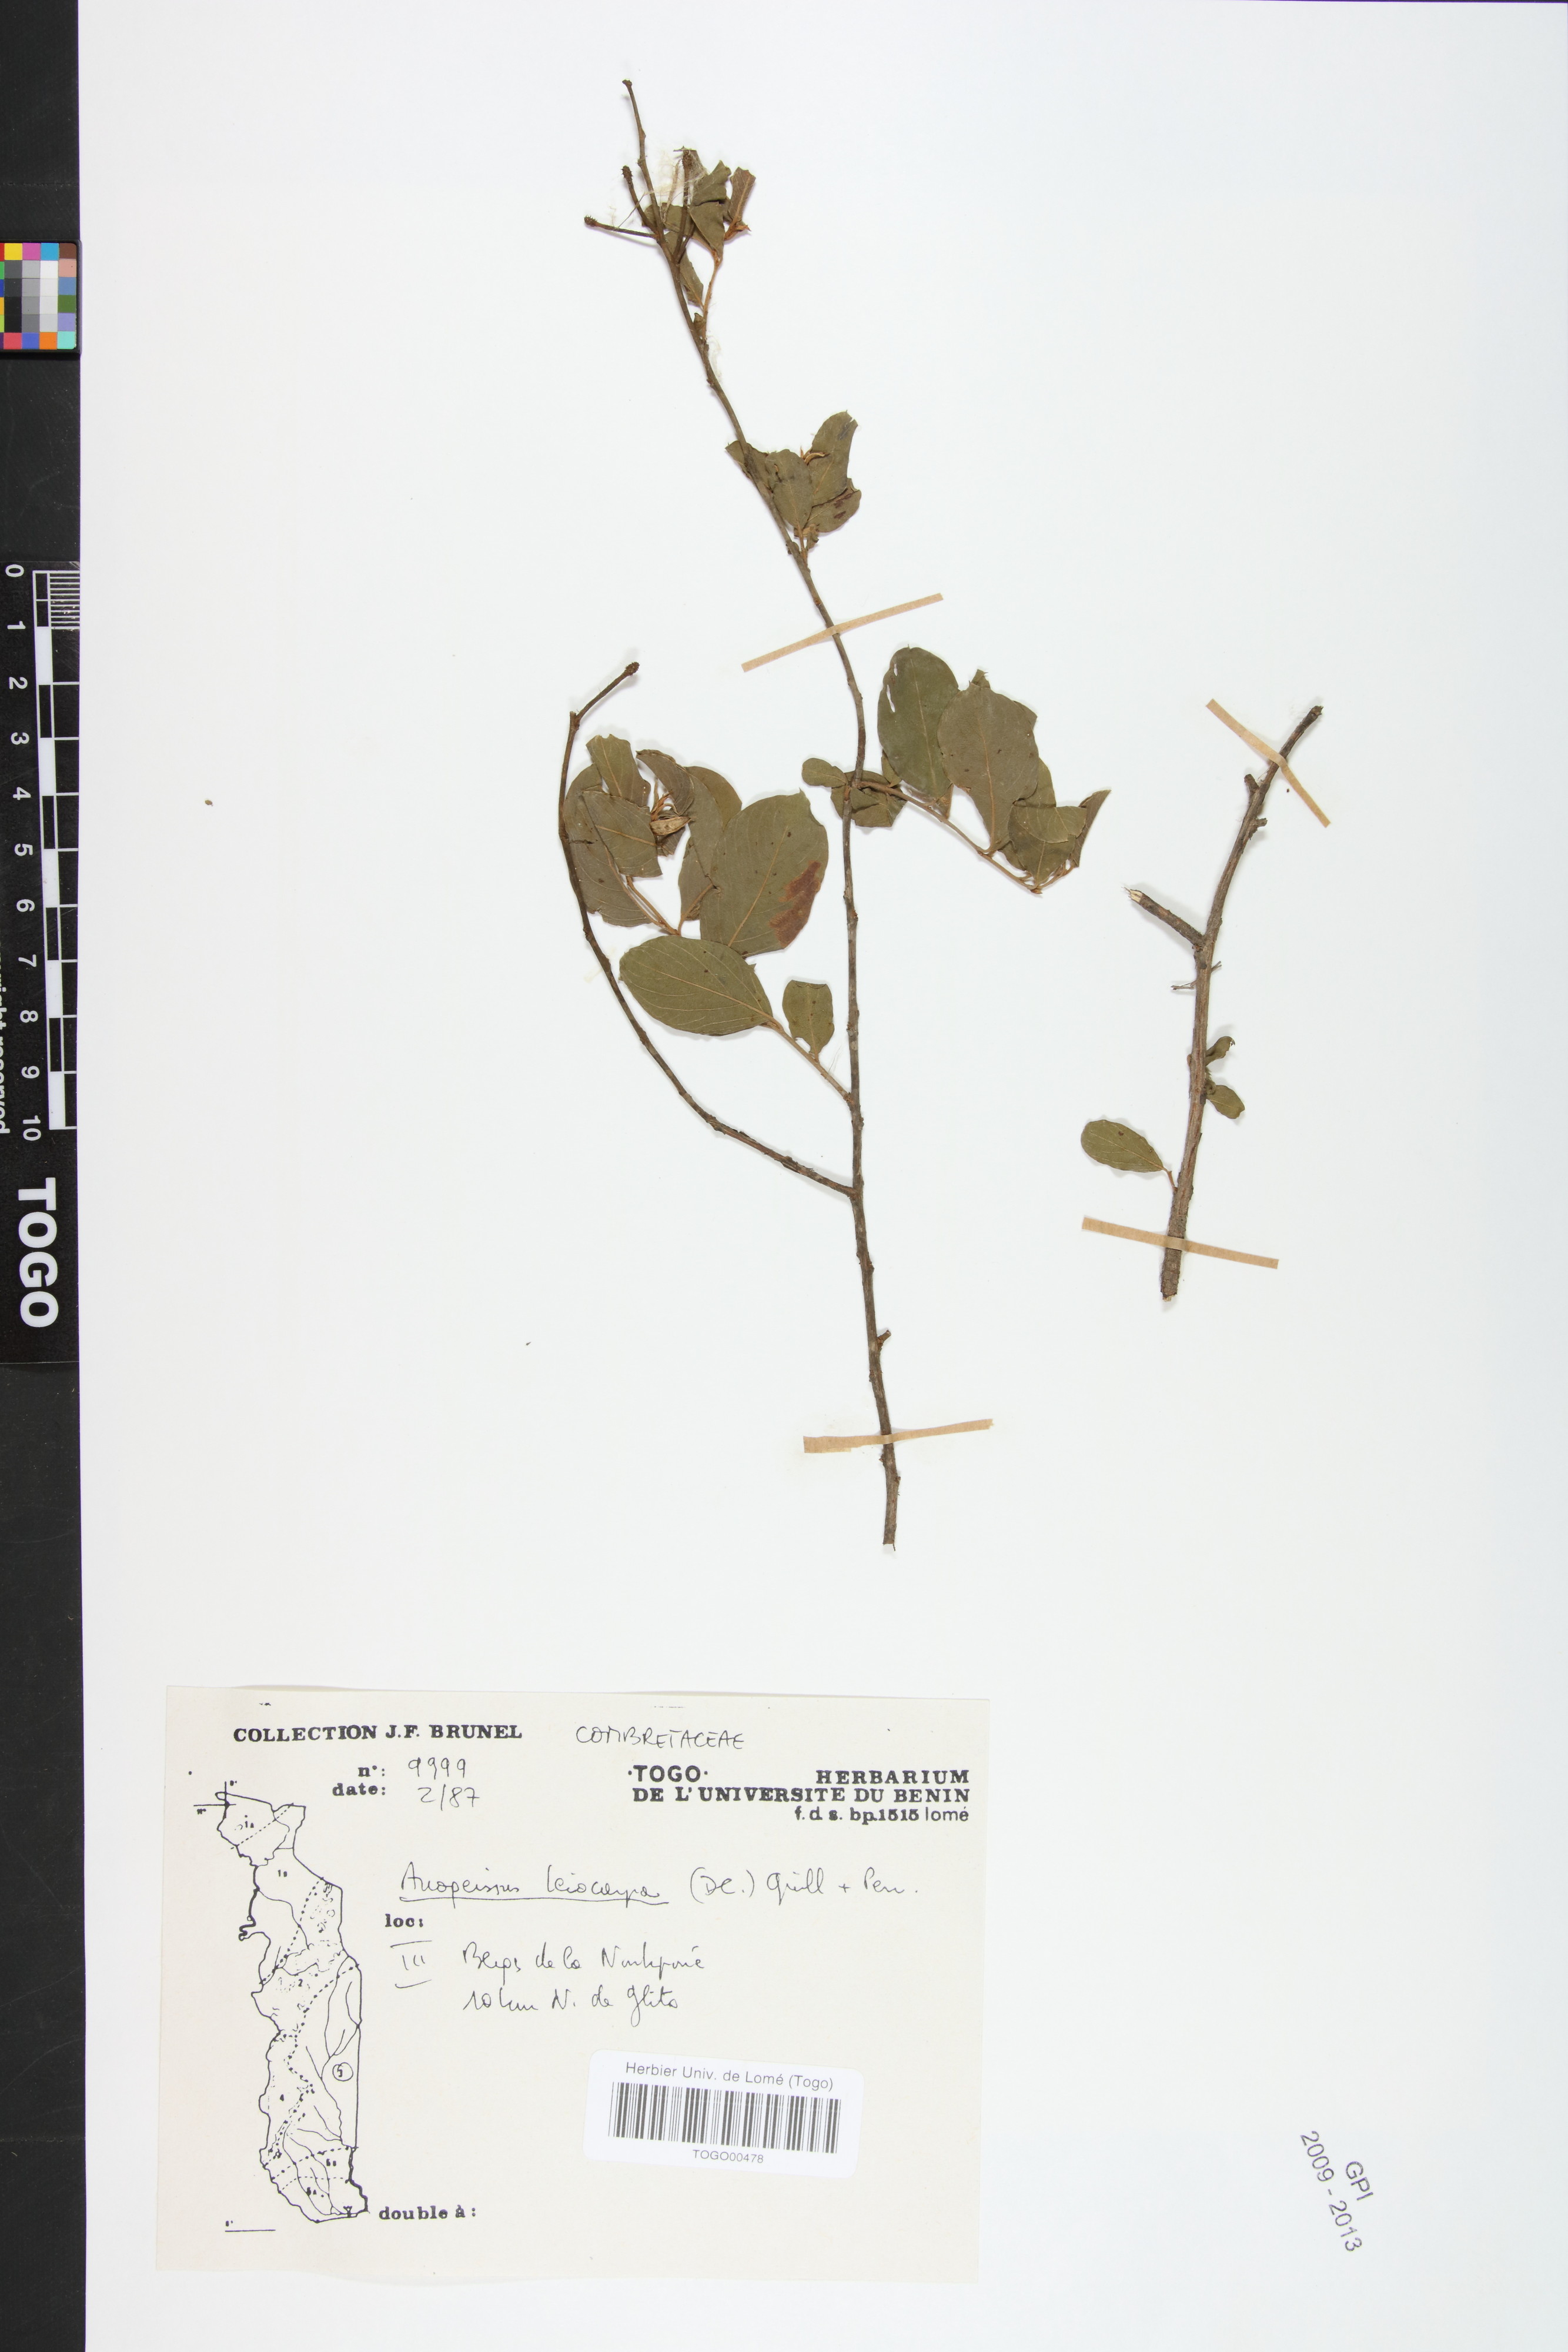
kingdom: Plantae
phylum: Tracheophyta
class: Magnoliopsida
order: Myrtales
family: Combretaceae
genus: Terminalia
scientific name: Terminalia leiocarpa
